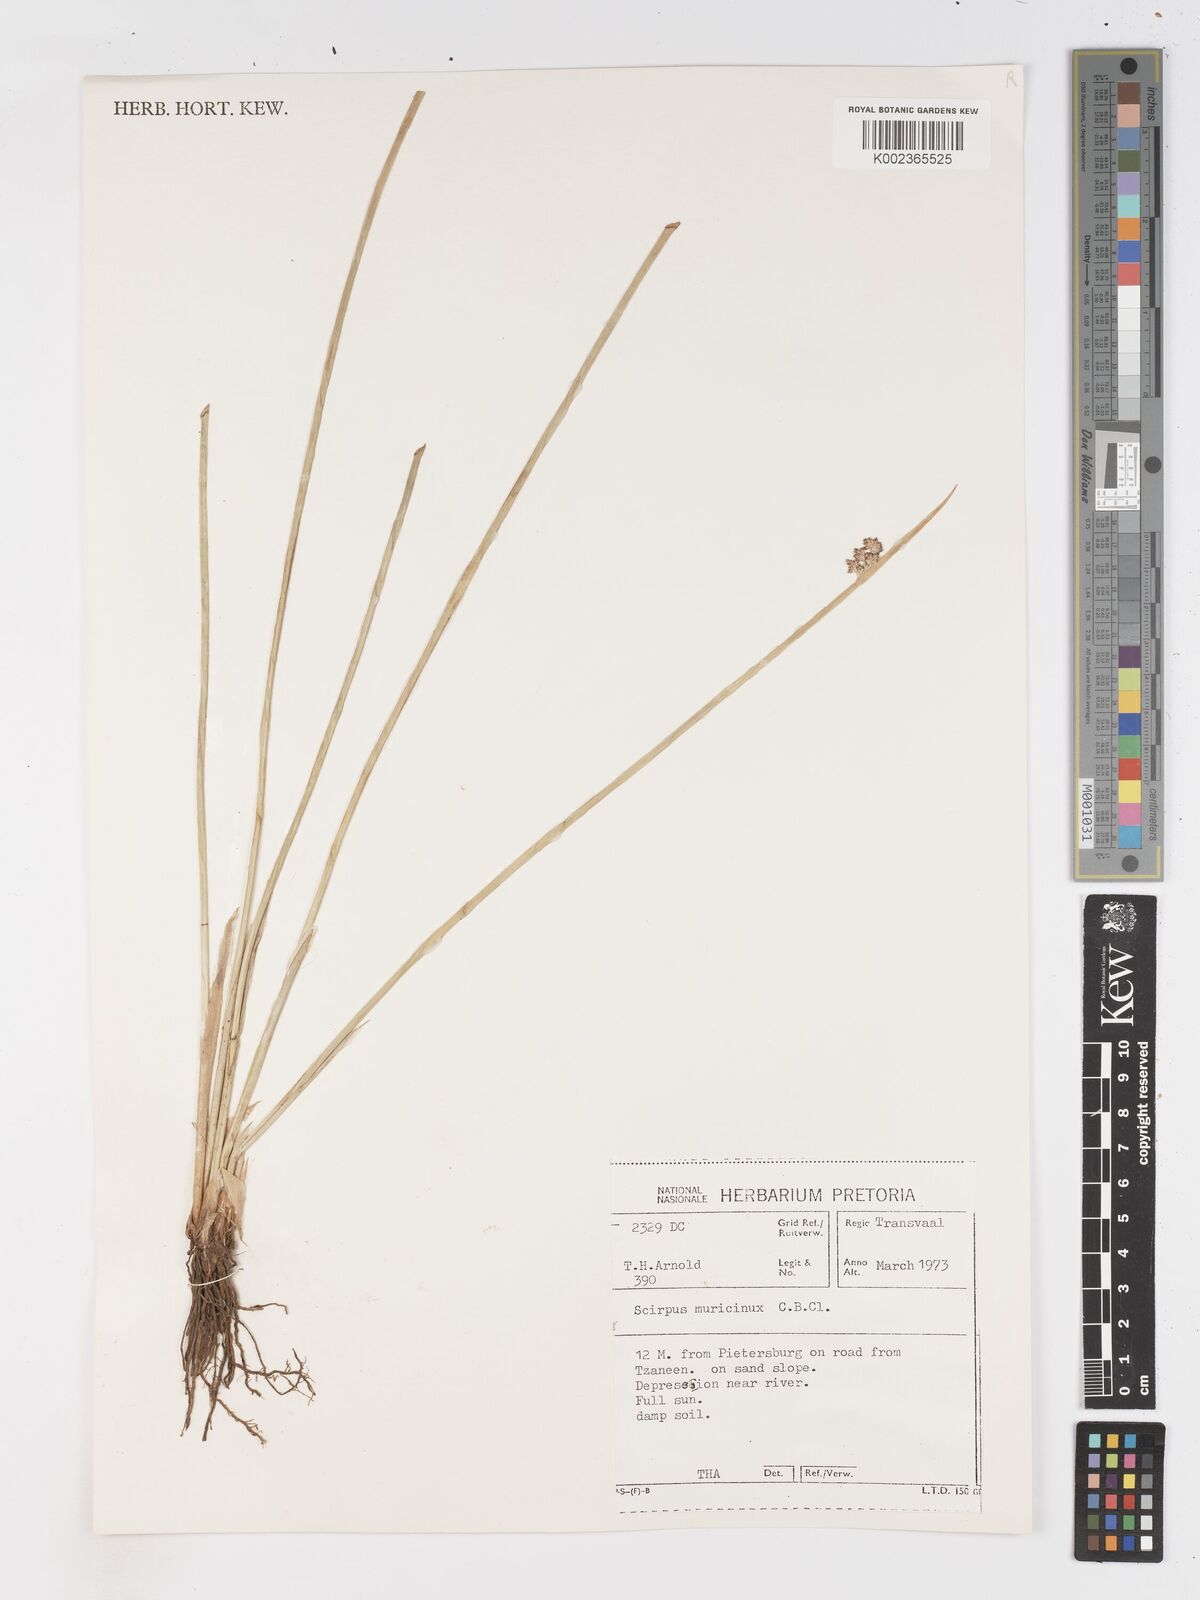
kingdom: Plantae
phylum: Tracheophyta
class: Liliopsida
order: Poales
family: Cyperaceae
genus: Schoenoplectiella
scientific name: Schoenoplectiella muricinux
